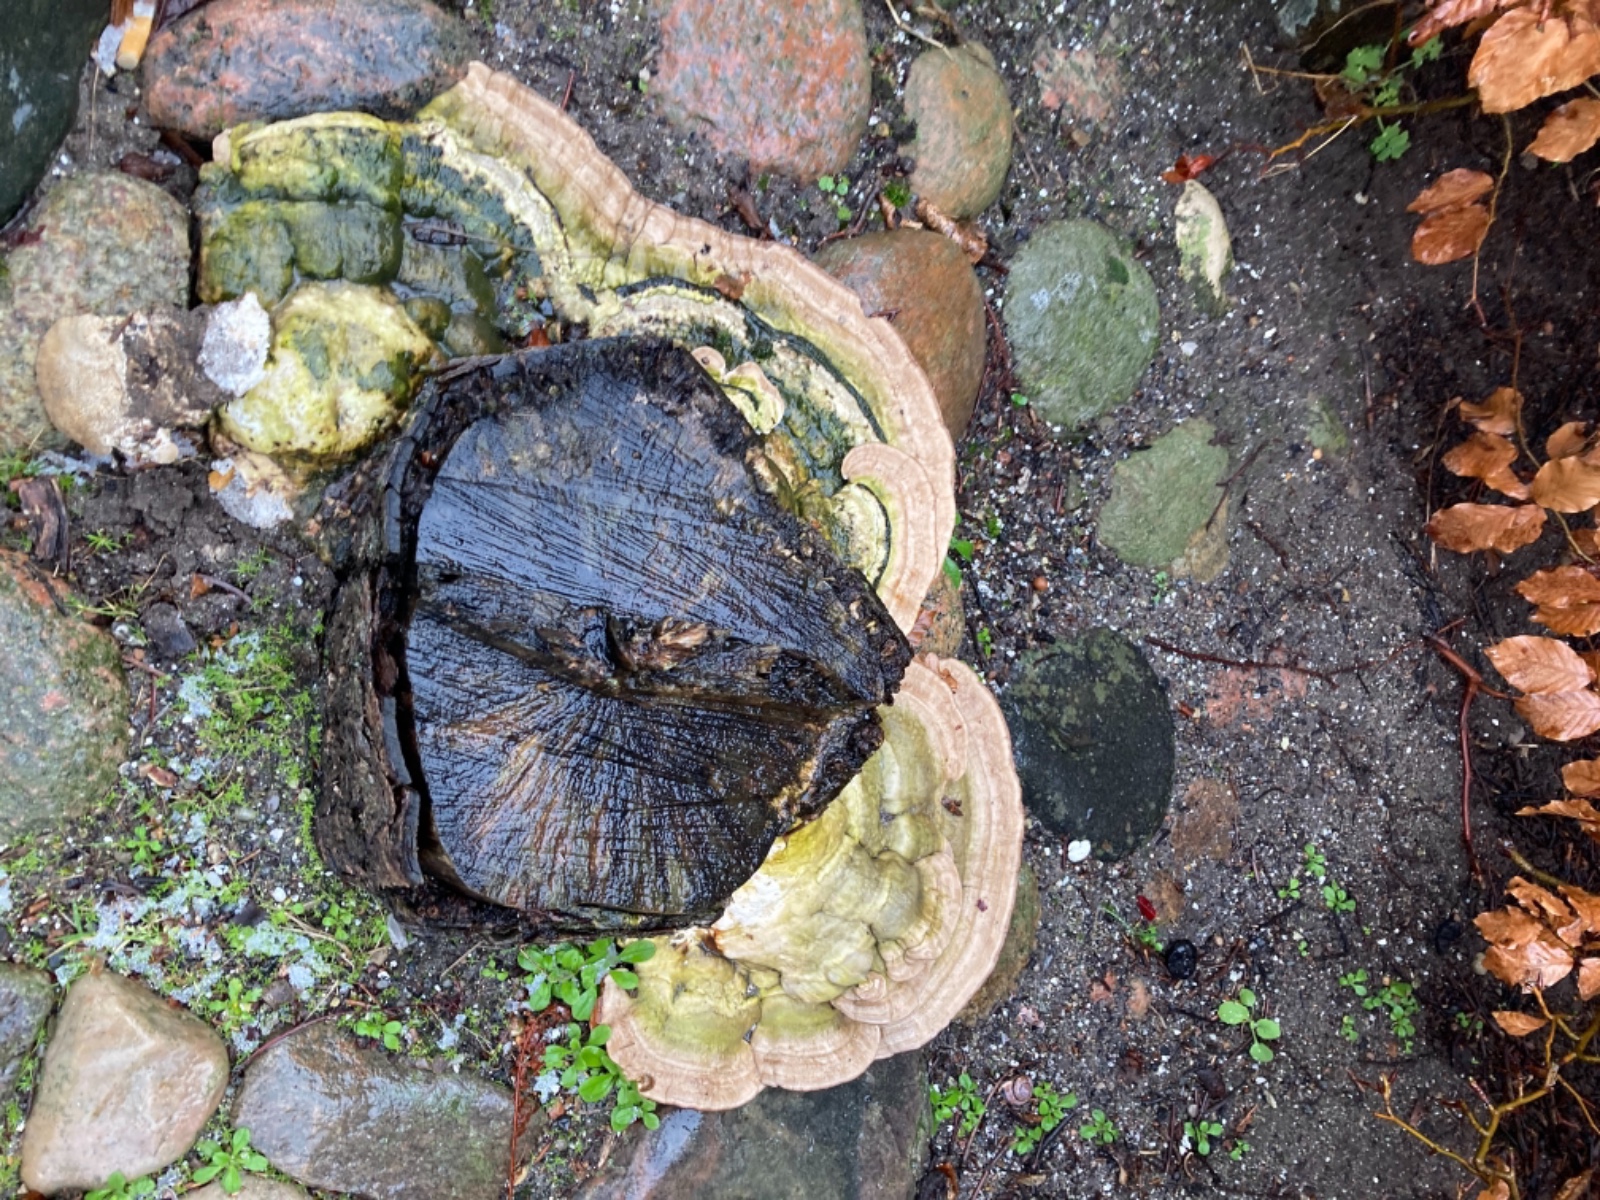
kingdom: Fungi
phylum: Basidiomycota
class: Agaricomycetes
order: Polyporales
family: Polyporaceae
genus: Trametes
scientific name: Trametes gibbosa
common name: puklet læderporesvamp
